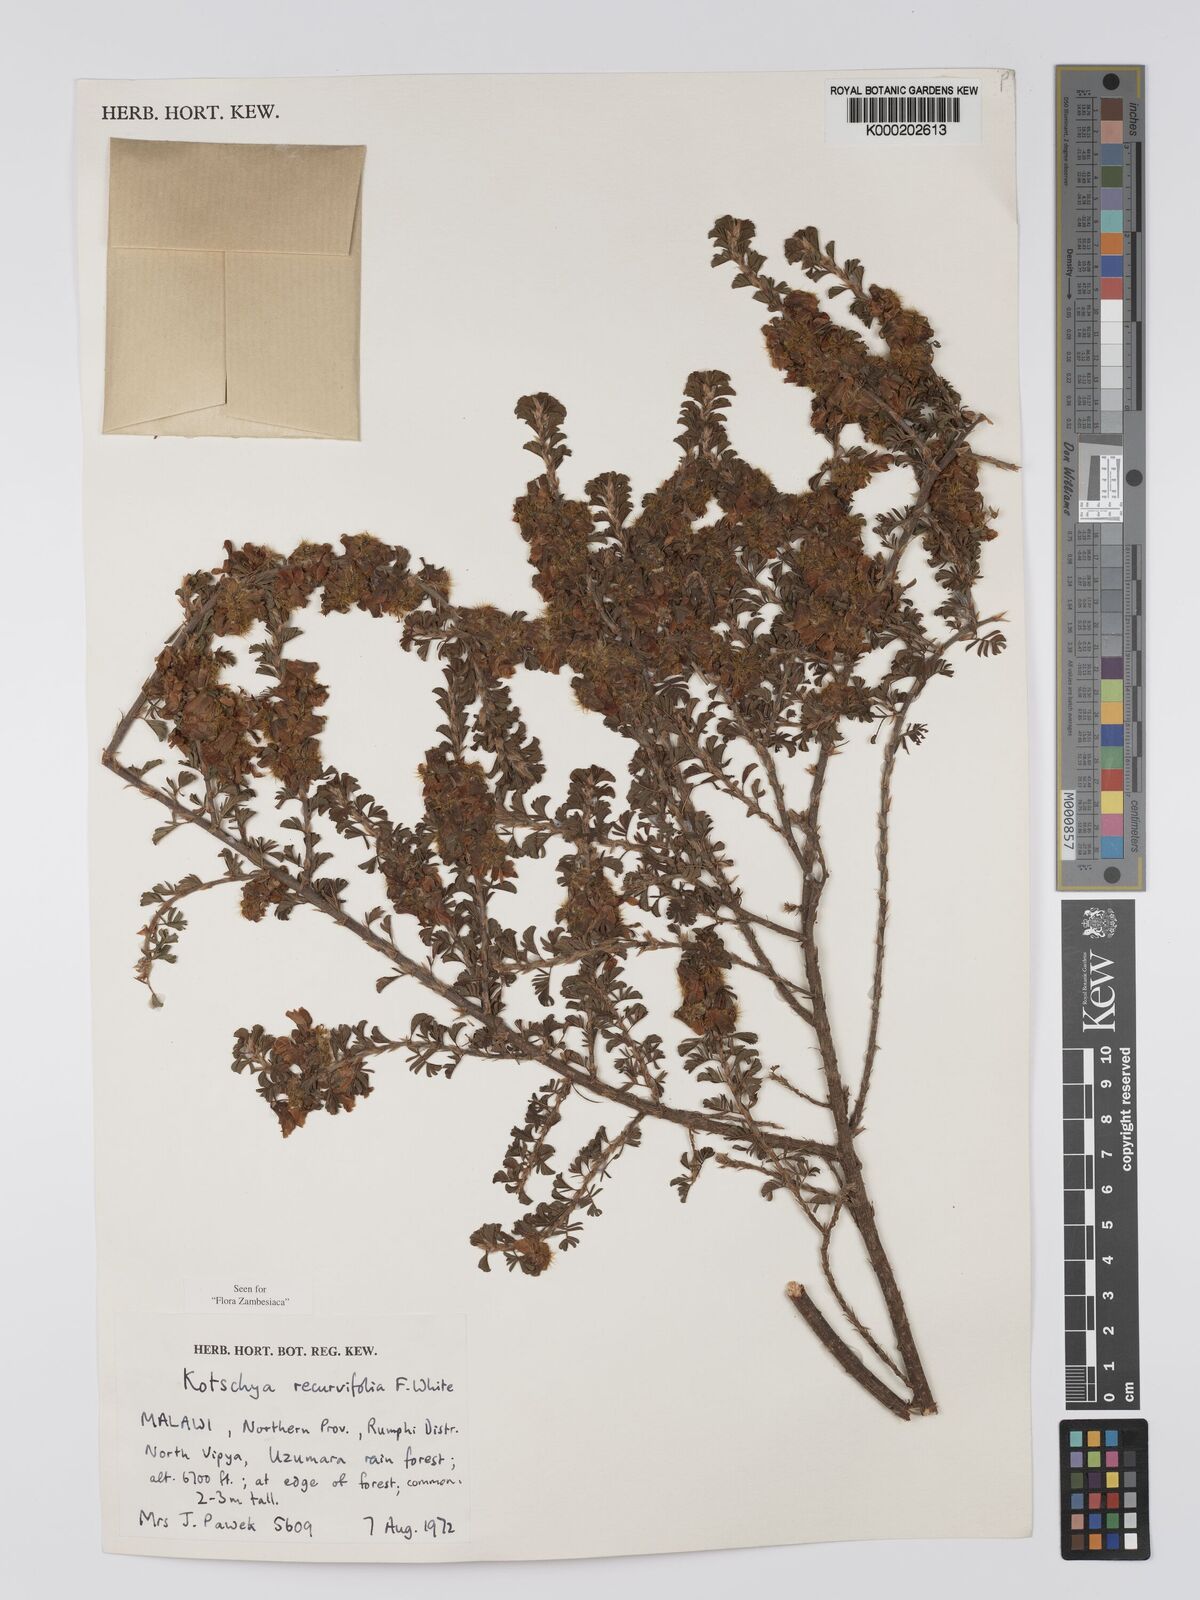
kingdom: Plantae
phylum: Tracheophyta
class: Magnoliopsida
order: Fabales
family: Fabaceae
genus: Kotschya
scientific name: Kotschya recurvifolia
